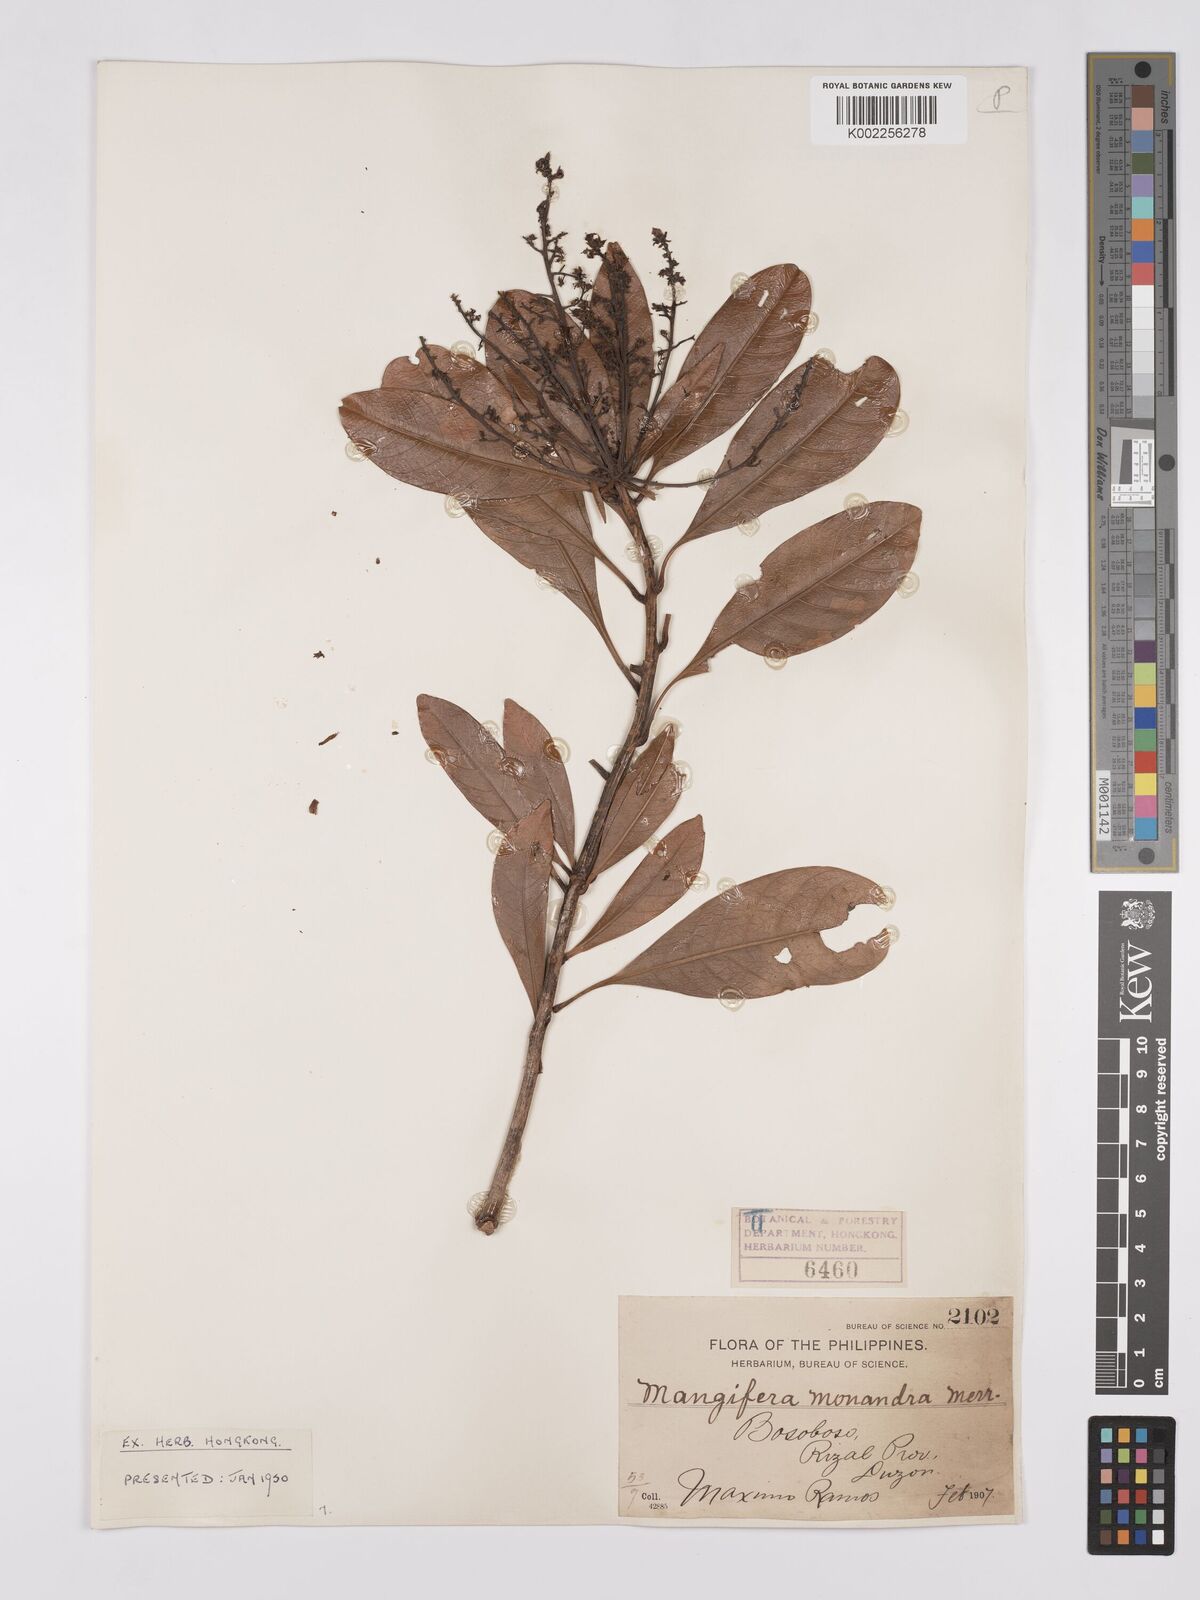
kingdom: Plantae
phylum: Tracheophyta
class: Magnoliopsida
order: Sapindales
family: Anacardiaceae
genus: Mangifera
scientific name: Mangifera monandra
